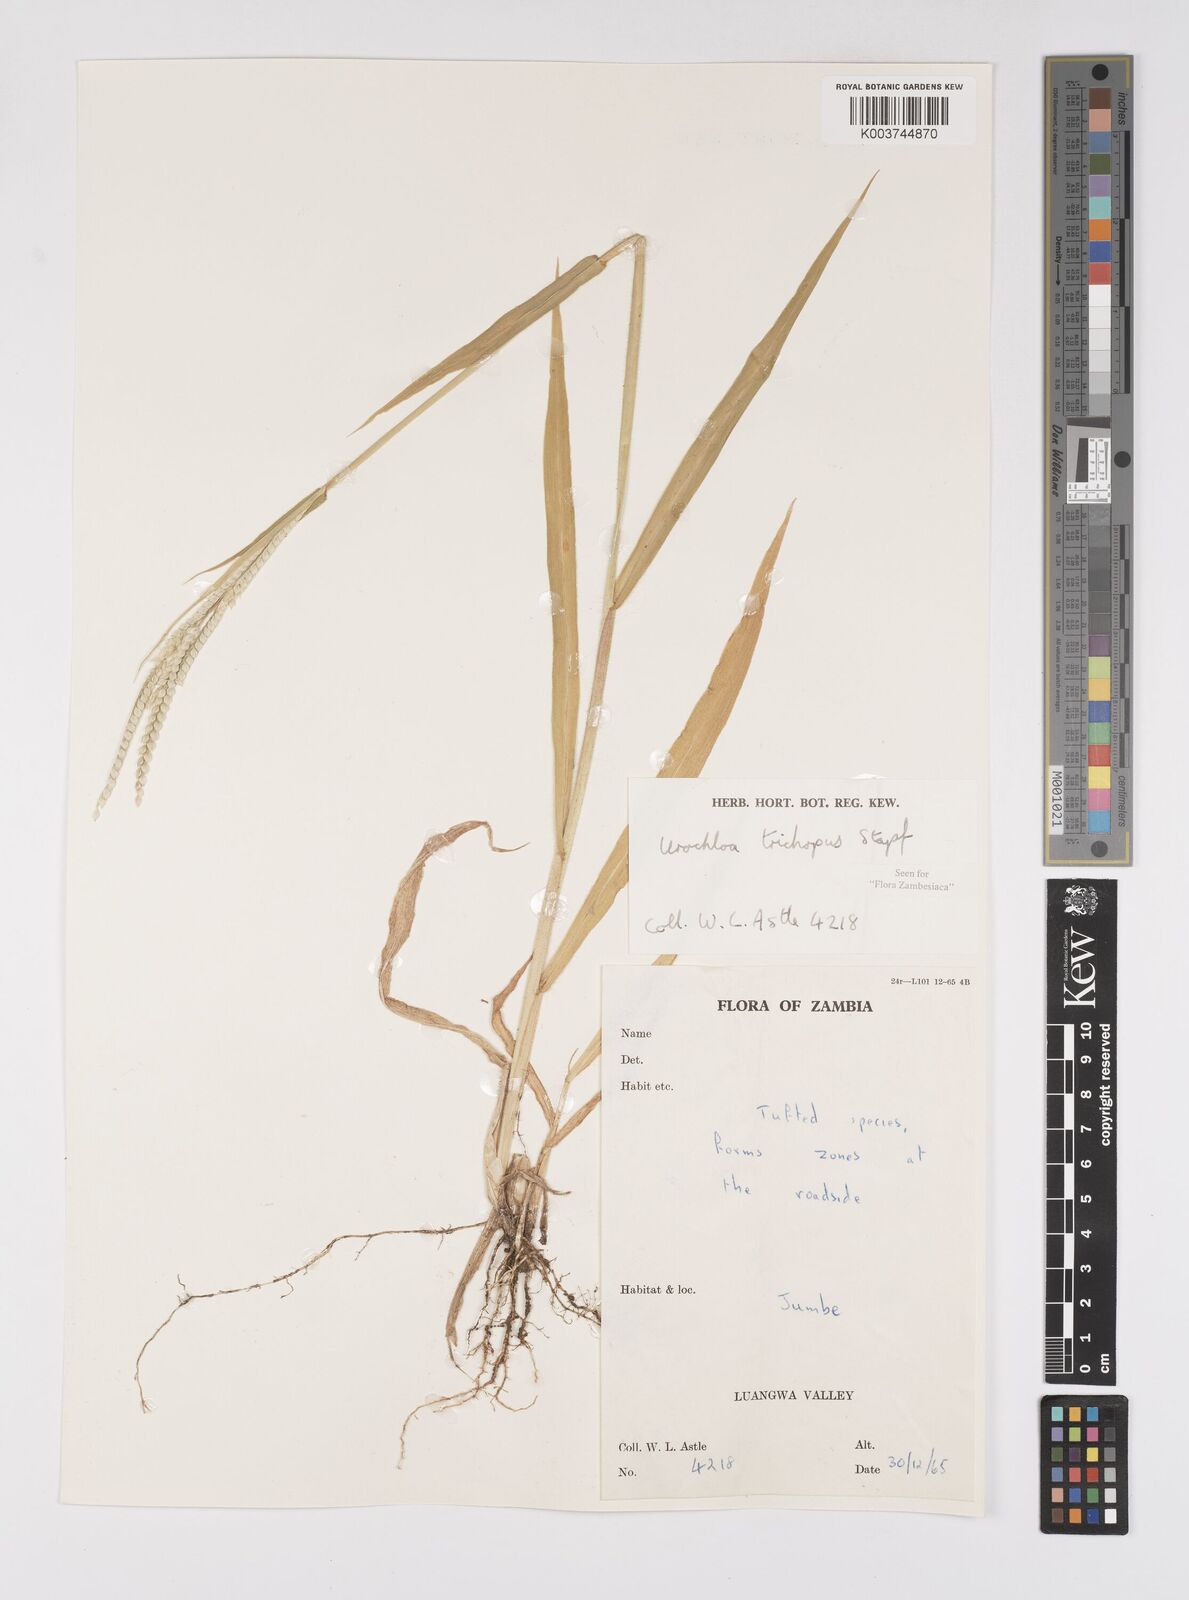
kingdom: Plantae
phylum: Tracheophyta
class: Liliopsida
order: Poales
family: Poaceae
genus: Urochloa
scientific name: Urochloa trichopus
